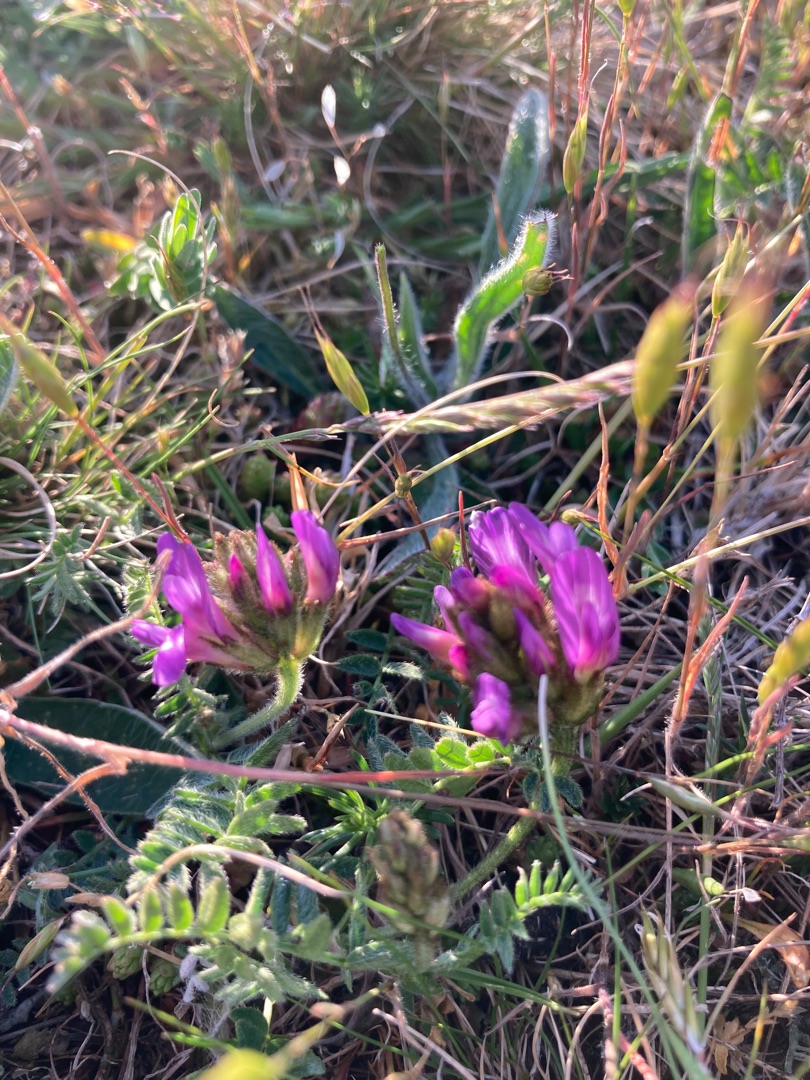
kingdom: Plantae
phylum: Tracheophyta
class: Magnoliopsida
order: Fabales
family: Fabaceae
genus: Astragalus
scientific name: Astragalus danicus
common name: Dansk astragel
